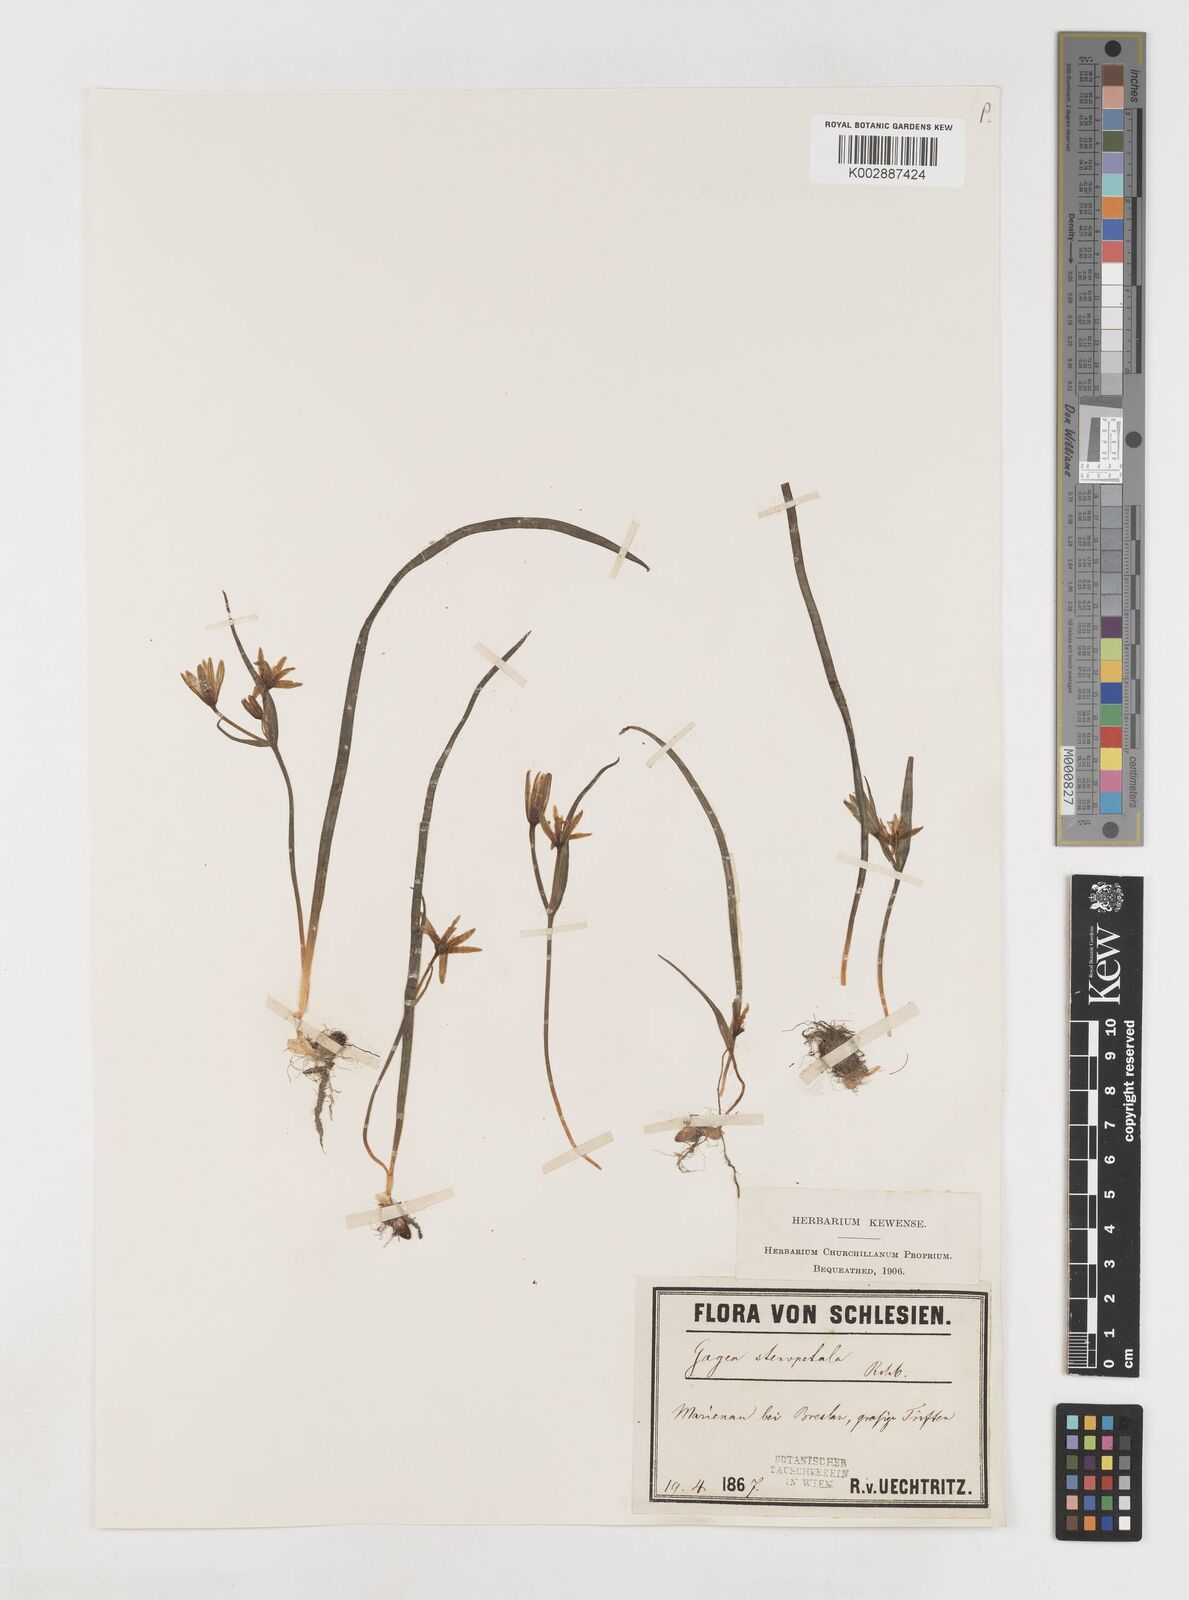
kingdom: Plantae
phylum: Tracheophyta
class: Liliopsida
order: Liliales
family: Liliaceae
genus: Gagea
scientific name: Gagea pratensis
